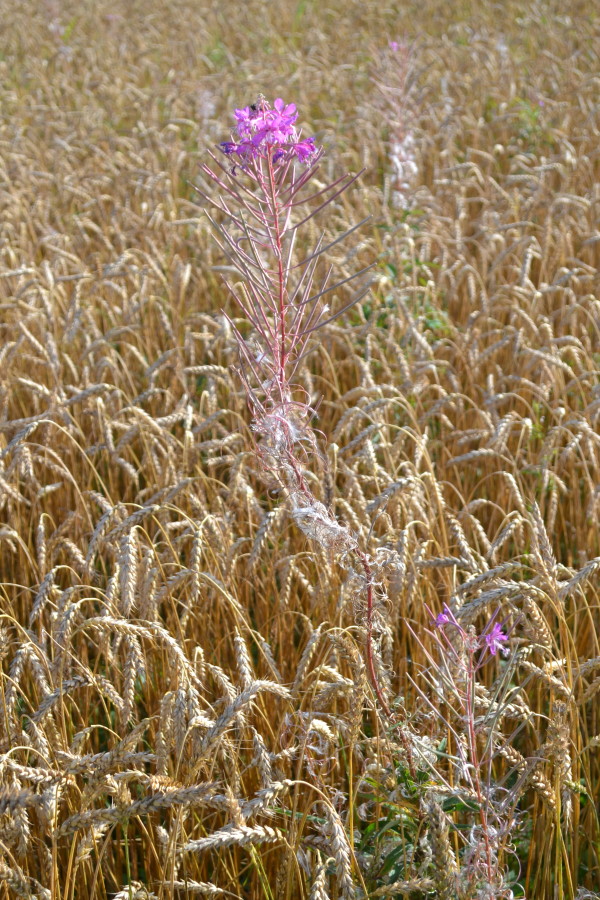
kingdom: Plantae
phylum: Tracheophyta
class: Magnoliopsida
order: Myrtales
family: Onagraceae
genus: Chamaenerion
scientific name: Chamaenerion angustifolium
